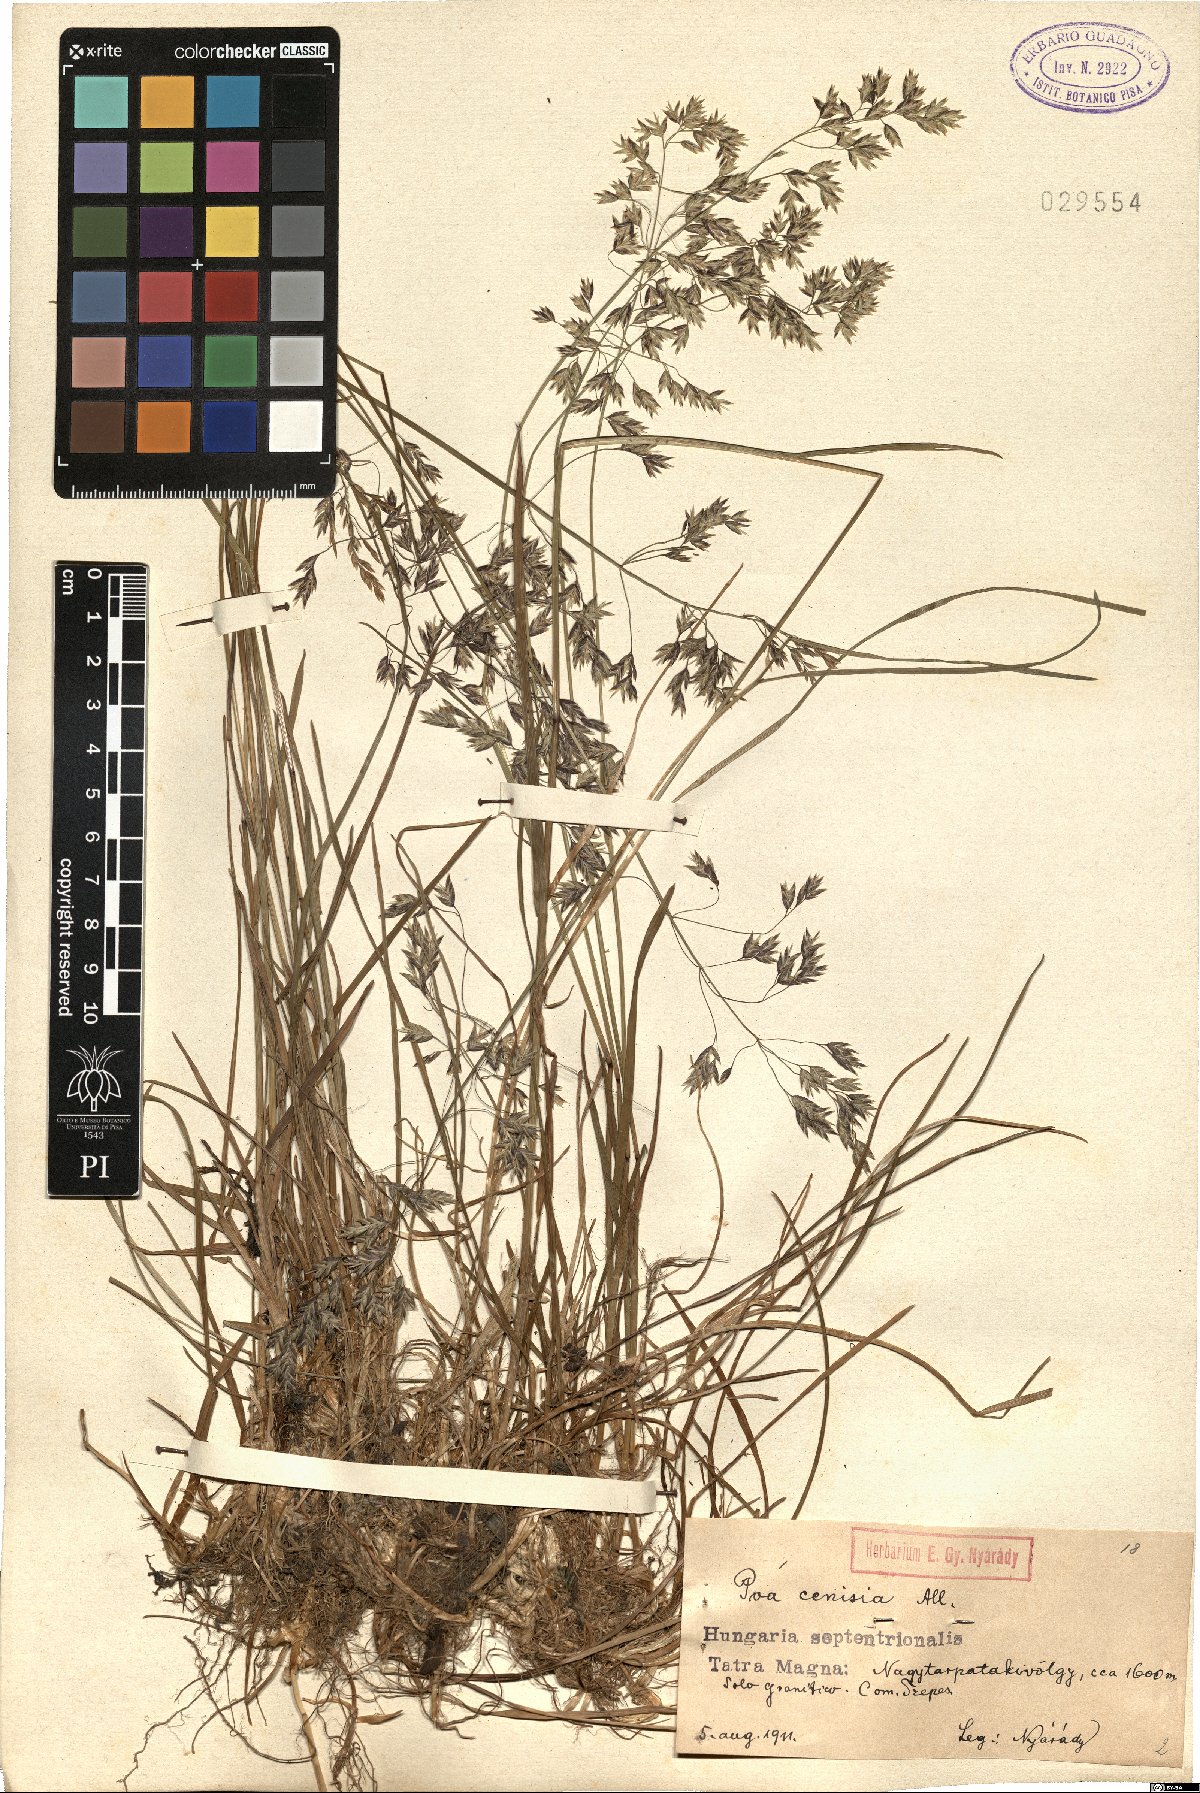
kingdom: Plantae
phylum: Tracheophyta
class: Liliopsida
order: Poales
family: Poaceae
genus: Poa
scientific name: Poa cenisia
